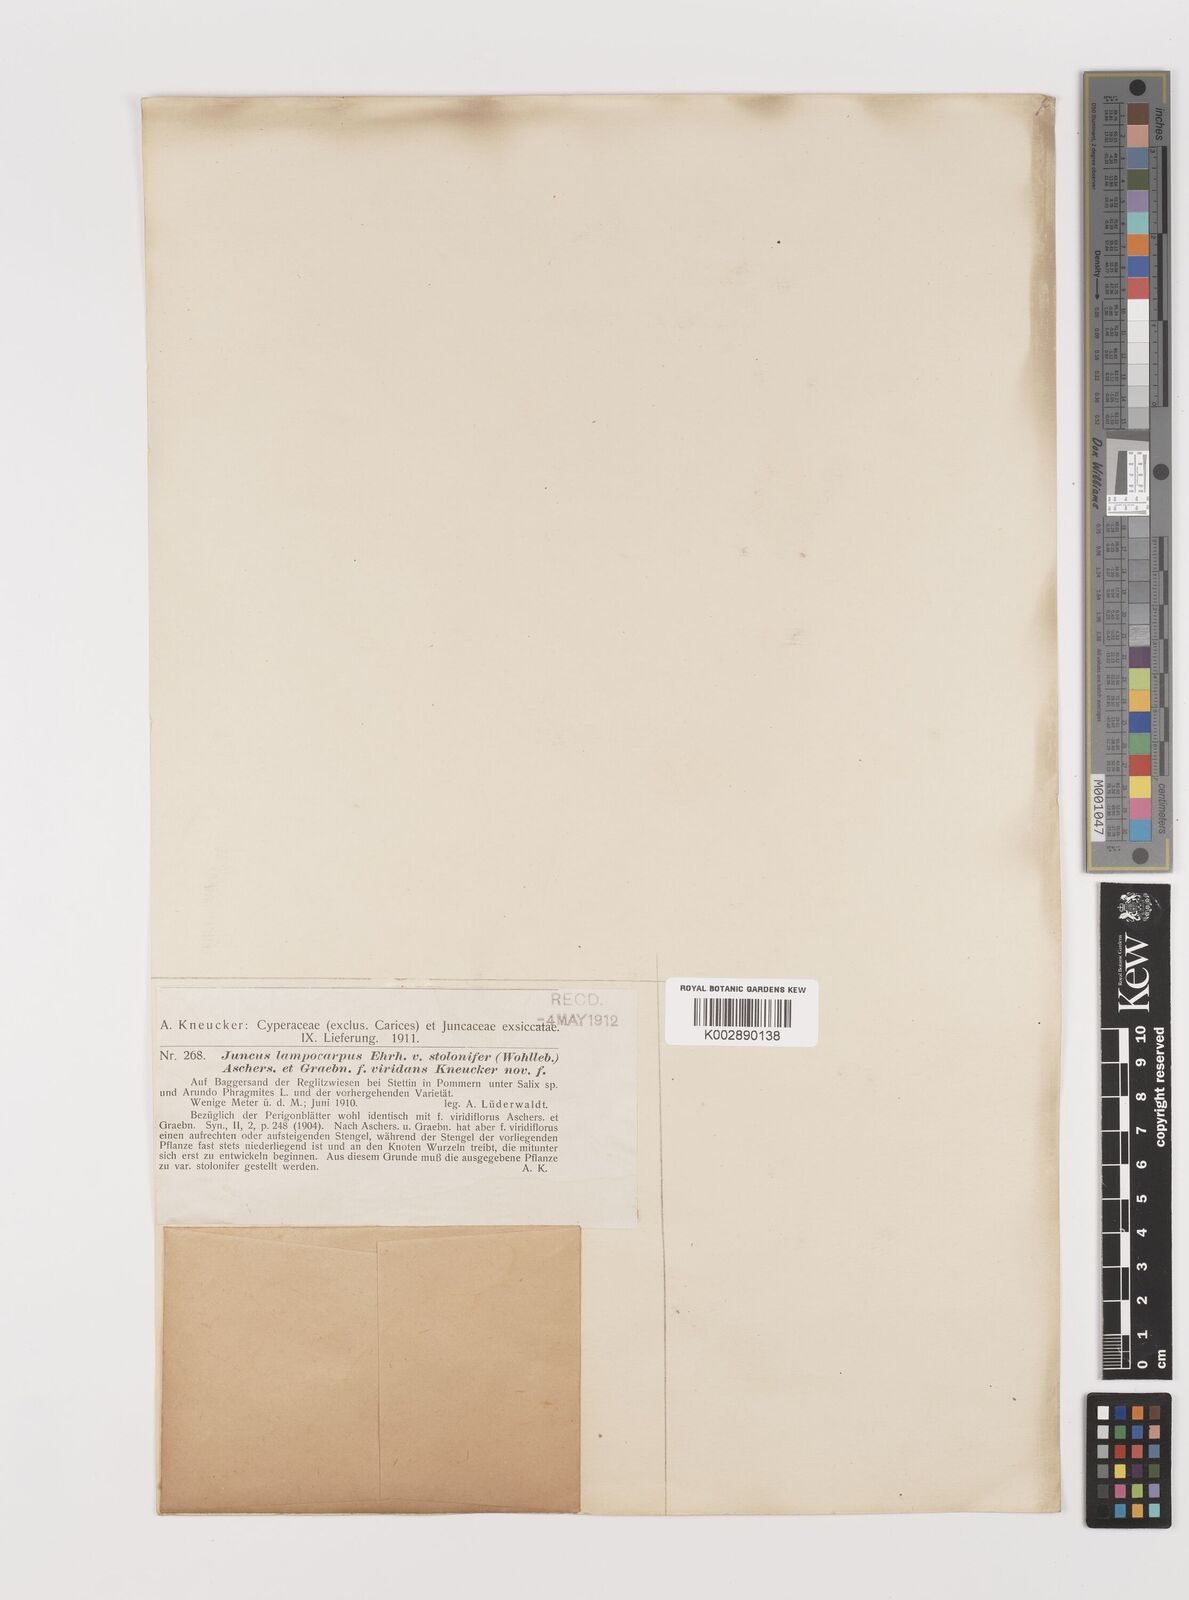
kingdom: Plantae
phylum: Tracheophyta
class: Liliopsida
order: Poales
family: Juncaceae
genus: Juncus
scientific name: Juncus articulatus
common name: Jointed rush
